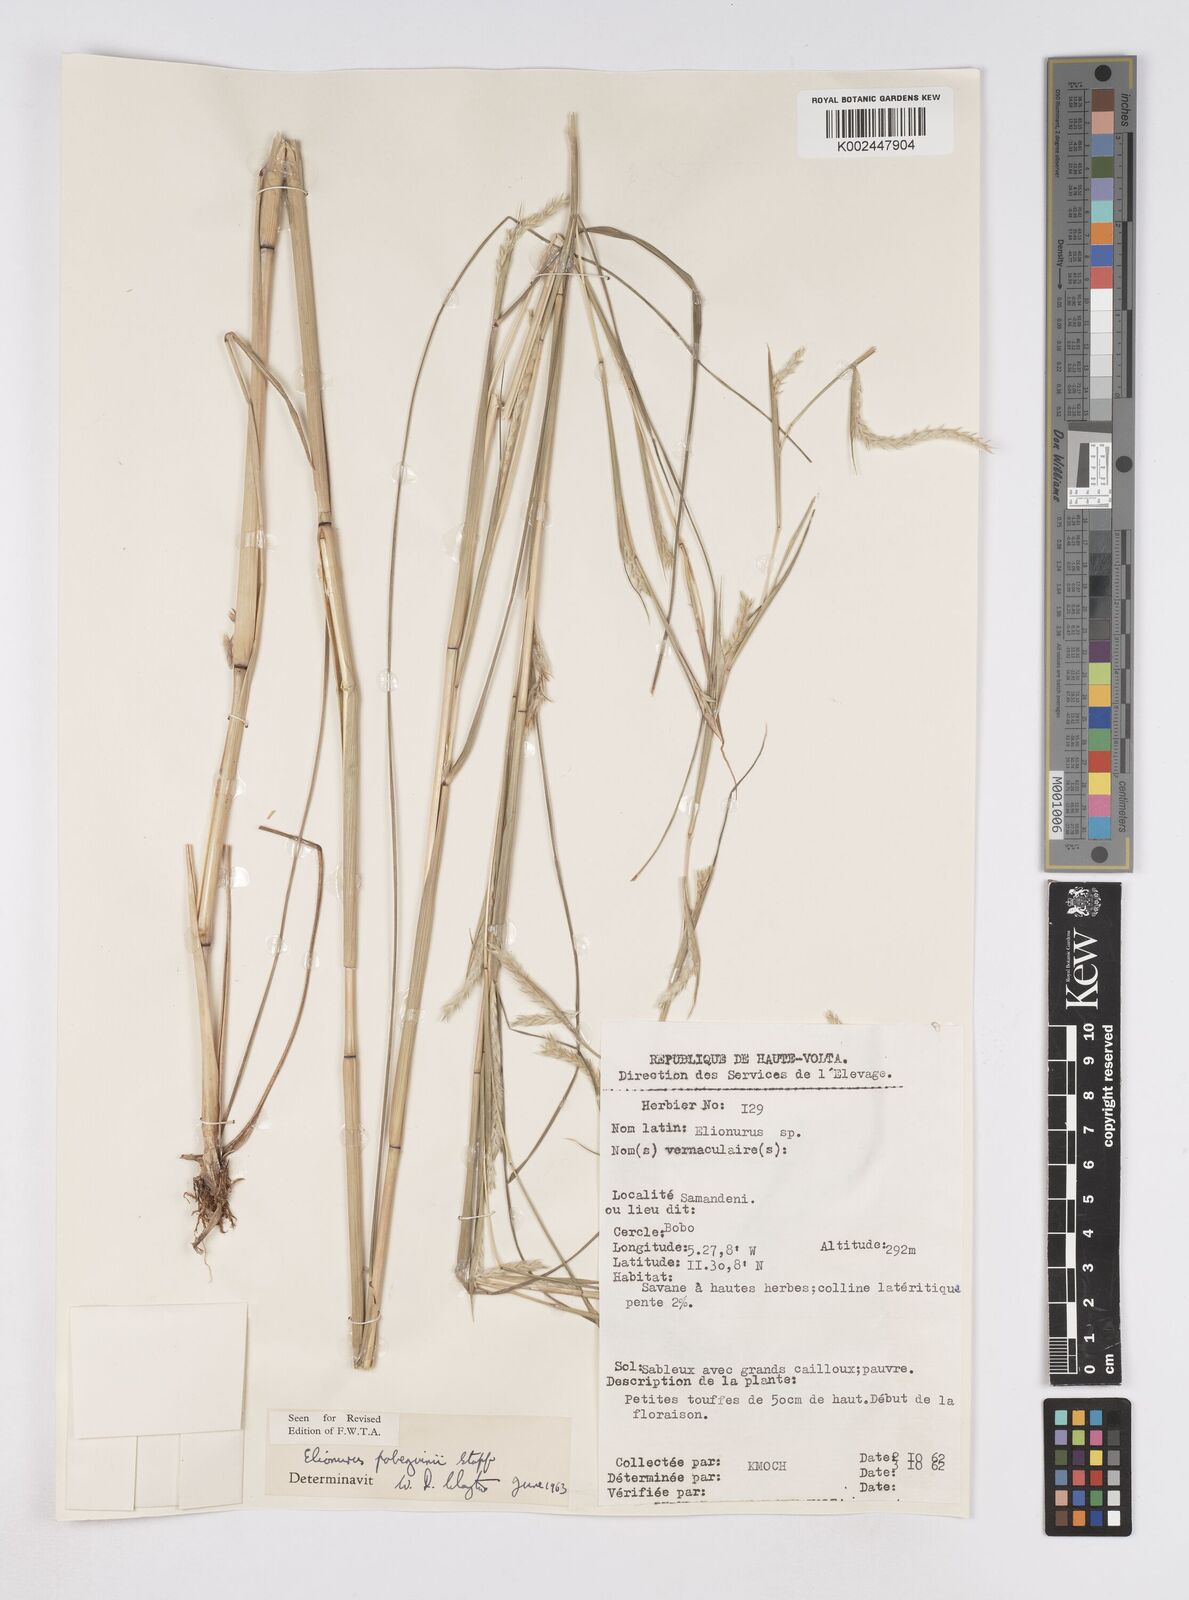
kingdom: Plantae
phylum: Tracheophyta
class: Liliopsida
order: Poales
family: Poaceae
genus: Elionurus
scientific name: Elionurus ciliaris
